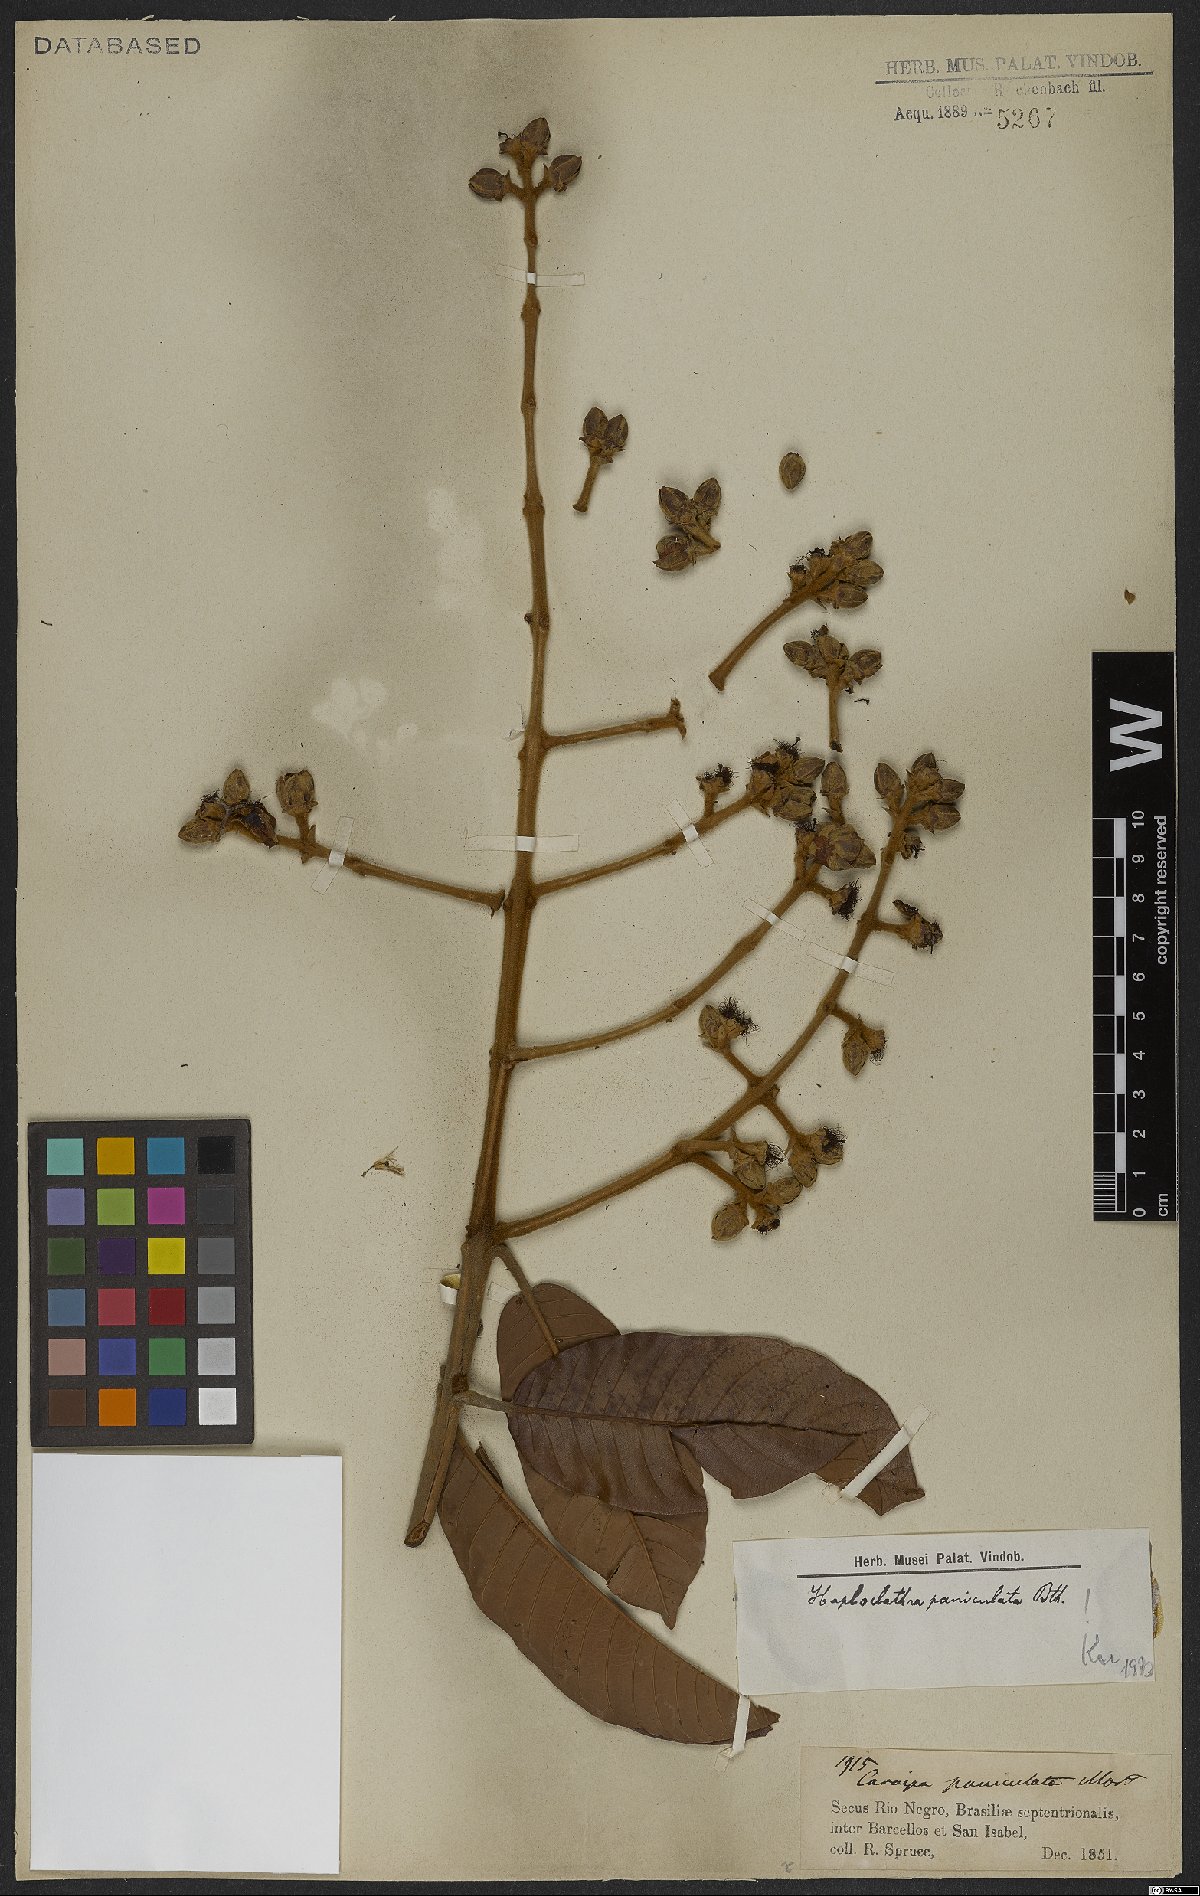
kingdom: Plantae
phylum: Tracheophyta
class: Magnoliopsida
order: Malpighiales
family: Calophyllaceae
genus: Haploclathra
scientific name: Haploclathra paniculata
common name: Red-wood
